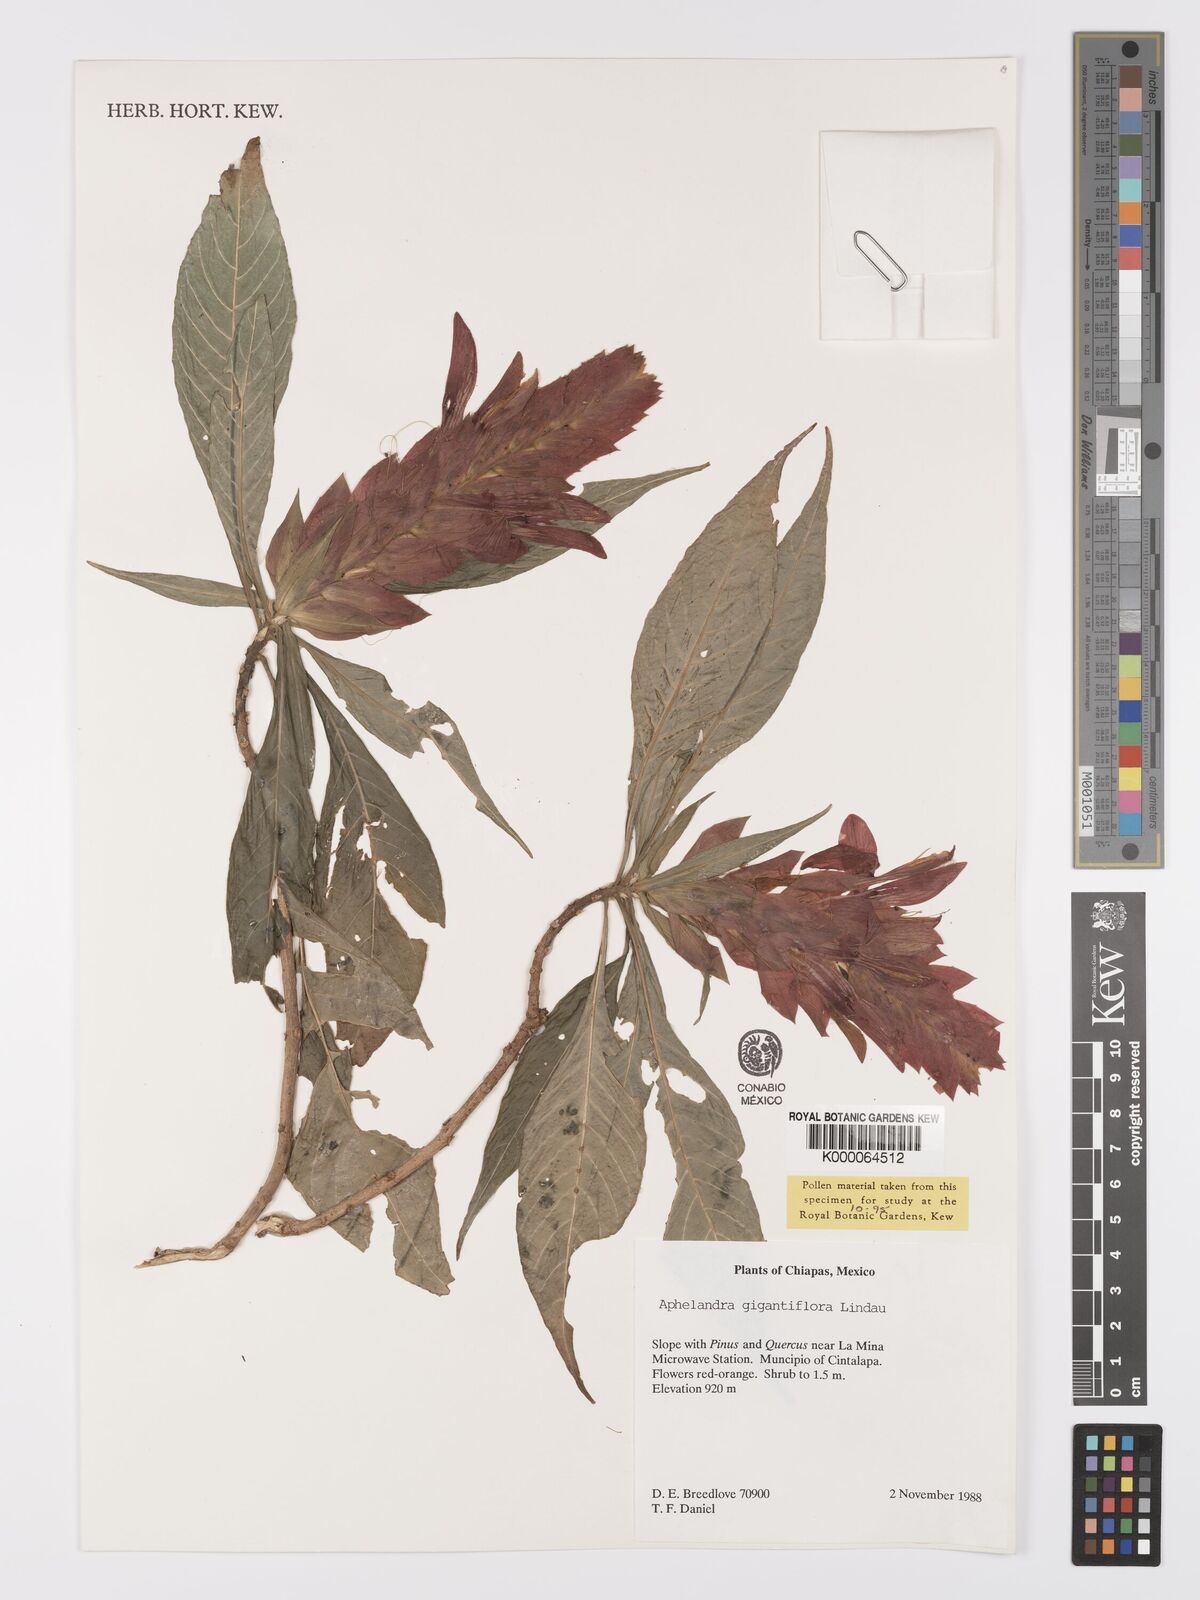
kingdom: Plantae
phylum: Tracheophyta
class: Magnoliopsida
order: Lamiales
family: Acanthaceae
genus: Aphelandra
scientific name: Aphelandra gigantiflora
